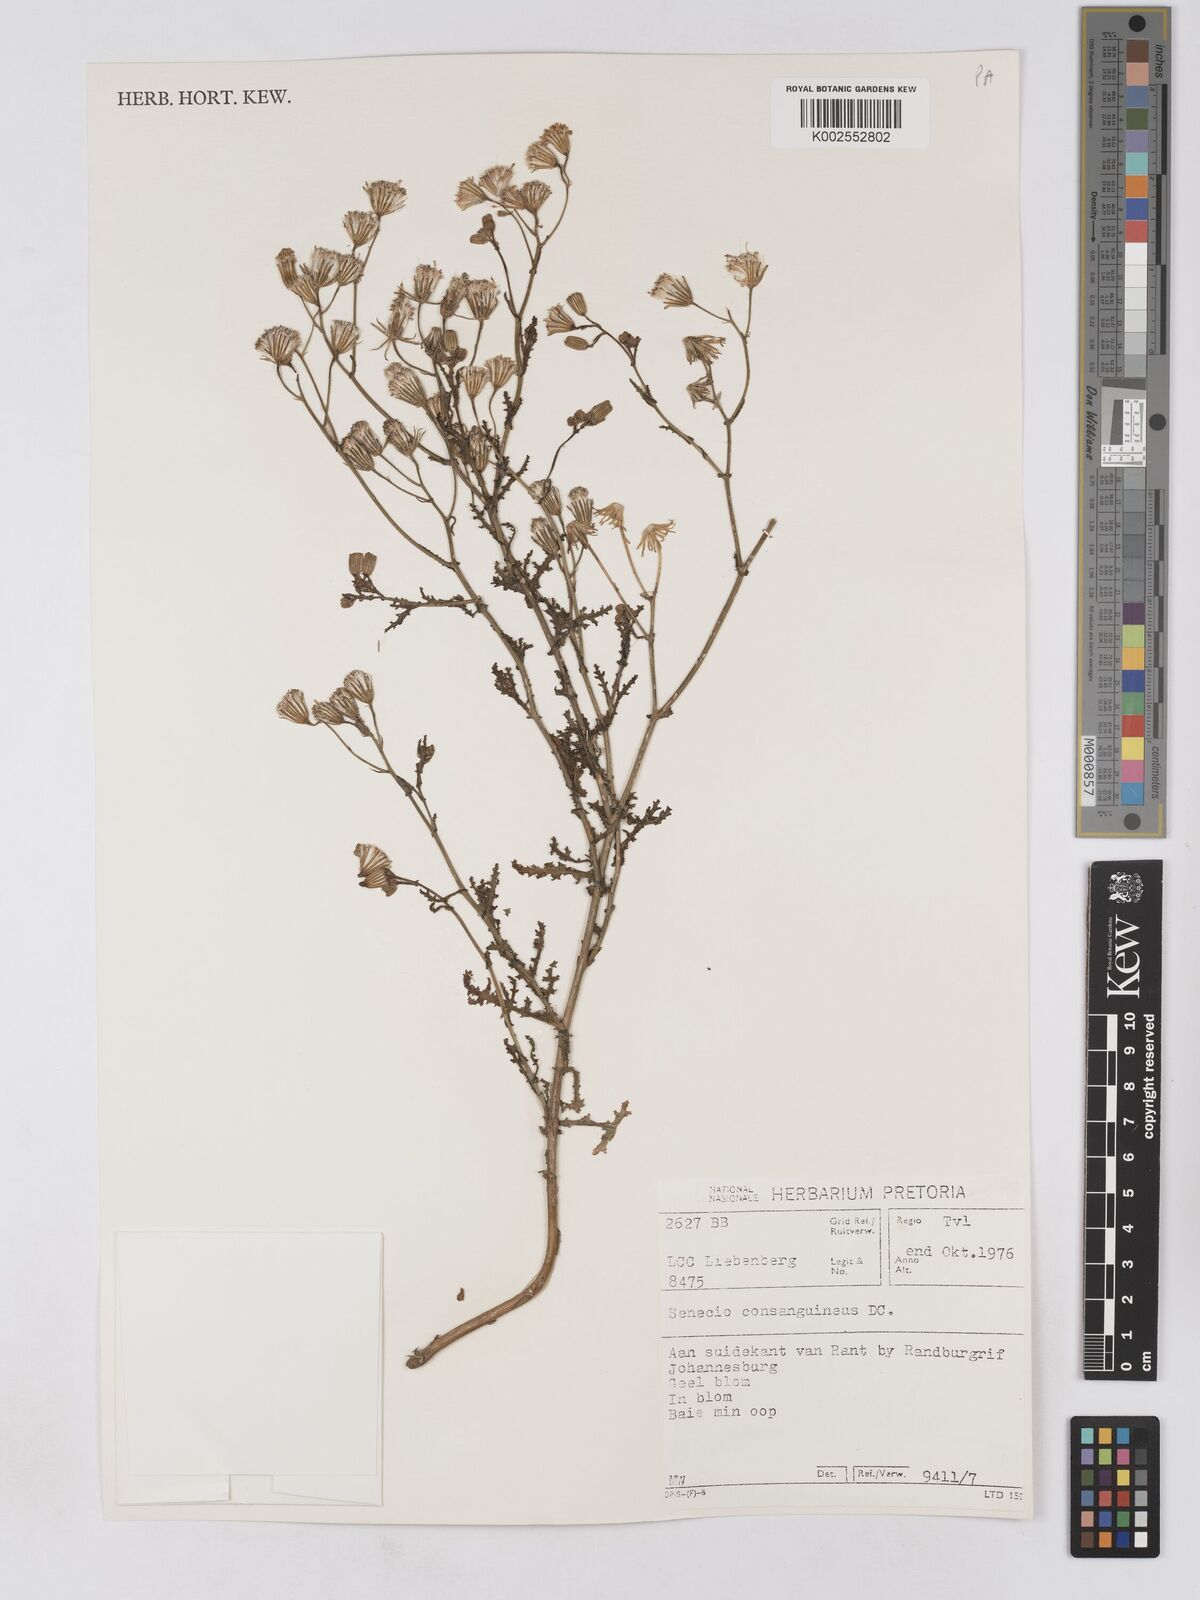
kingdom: Plantae
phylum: Tracheophyta
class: Magnoliopsida
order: Asterales
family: Asteraceae
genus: Senecio
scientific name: Senecio consanguineus
